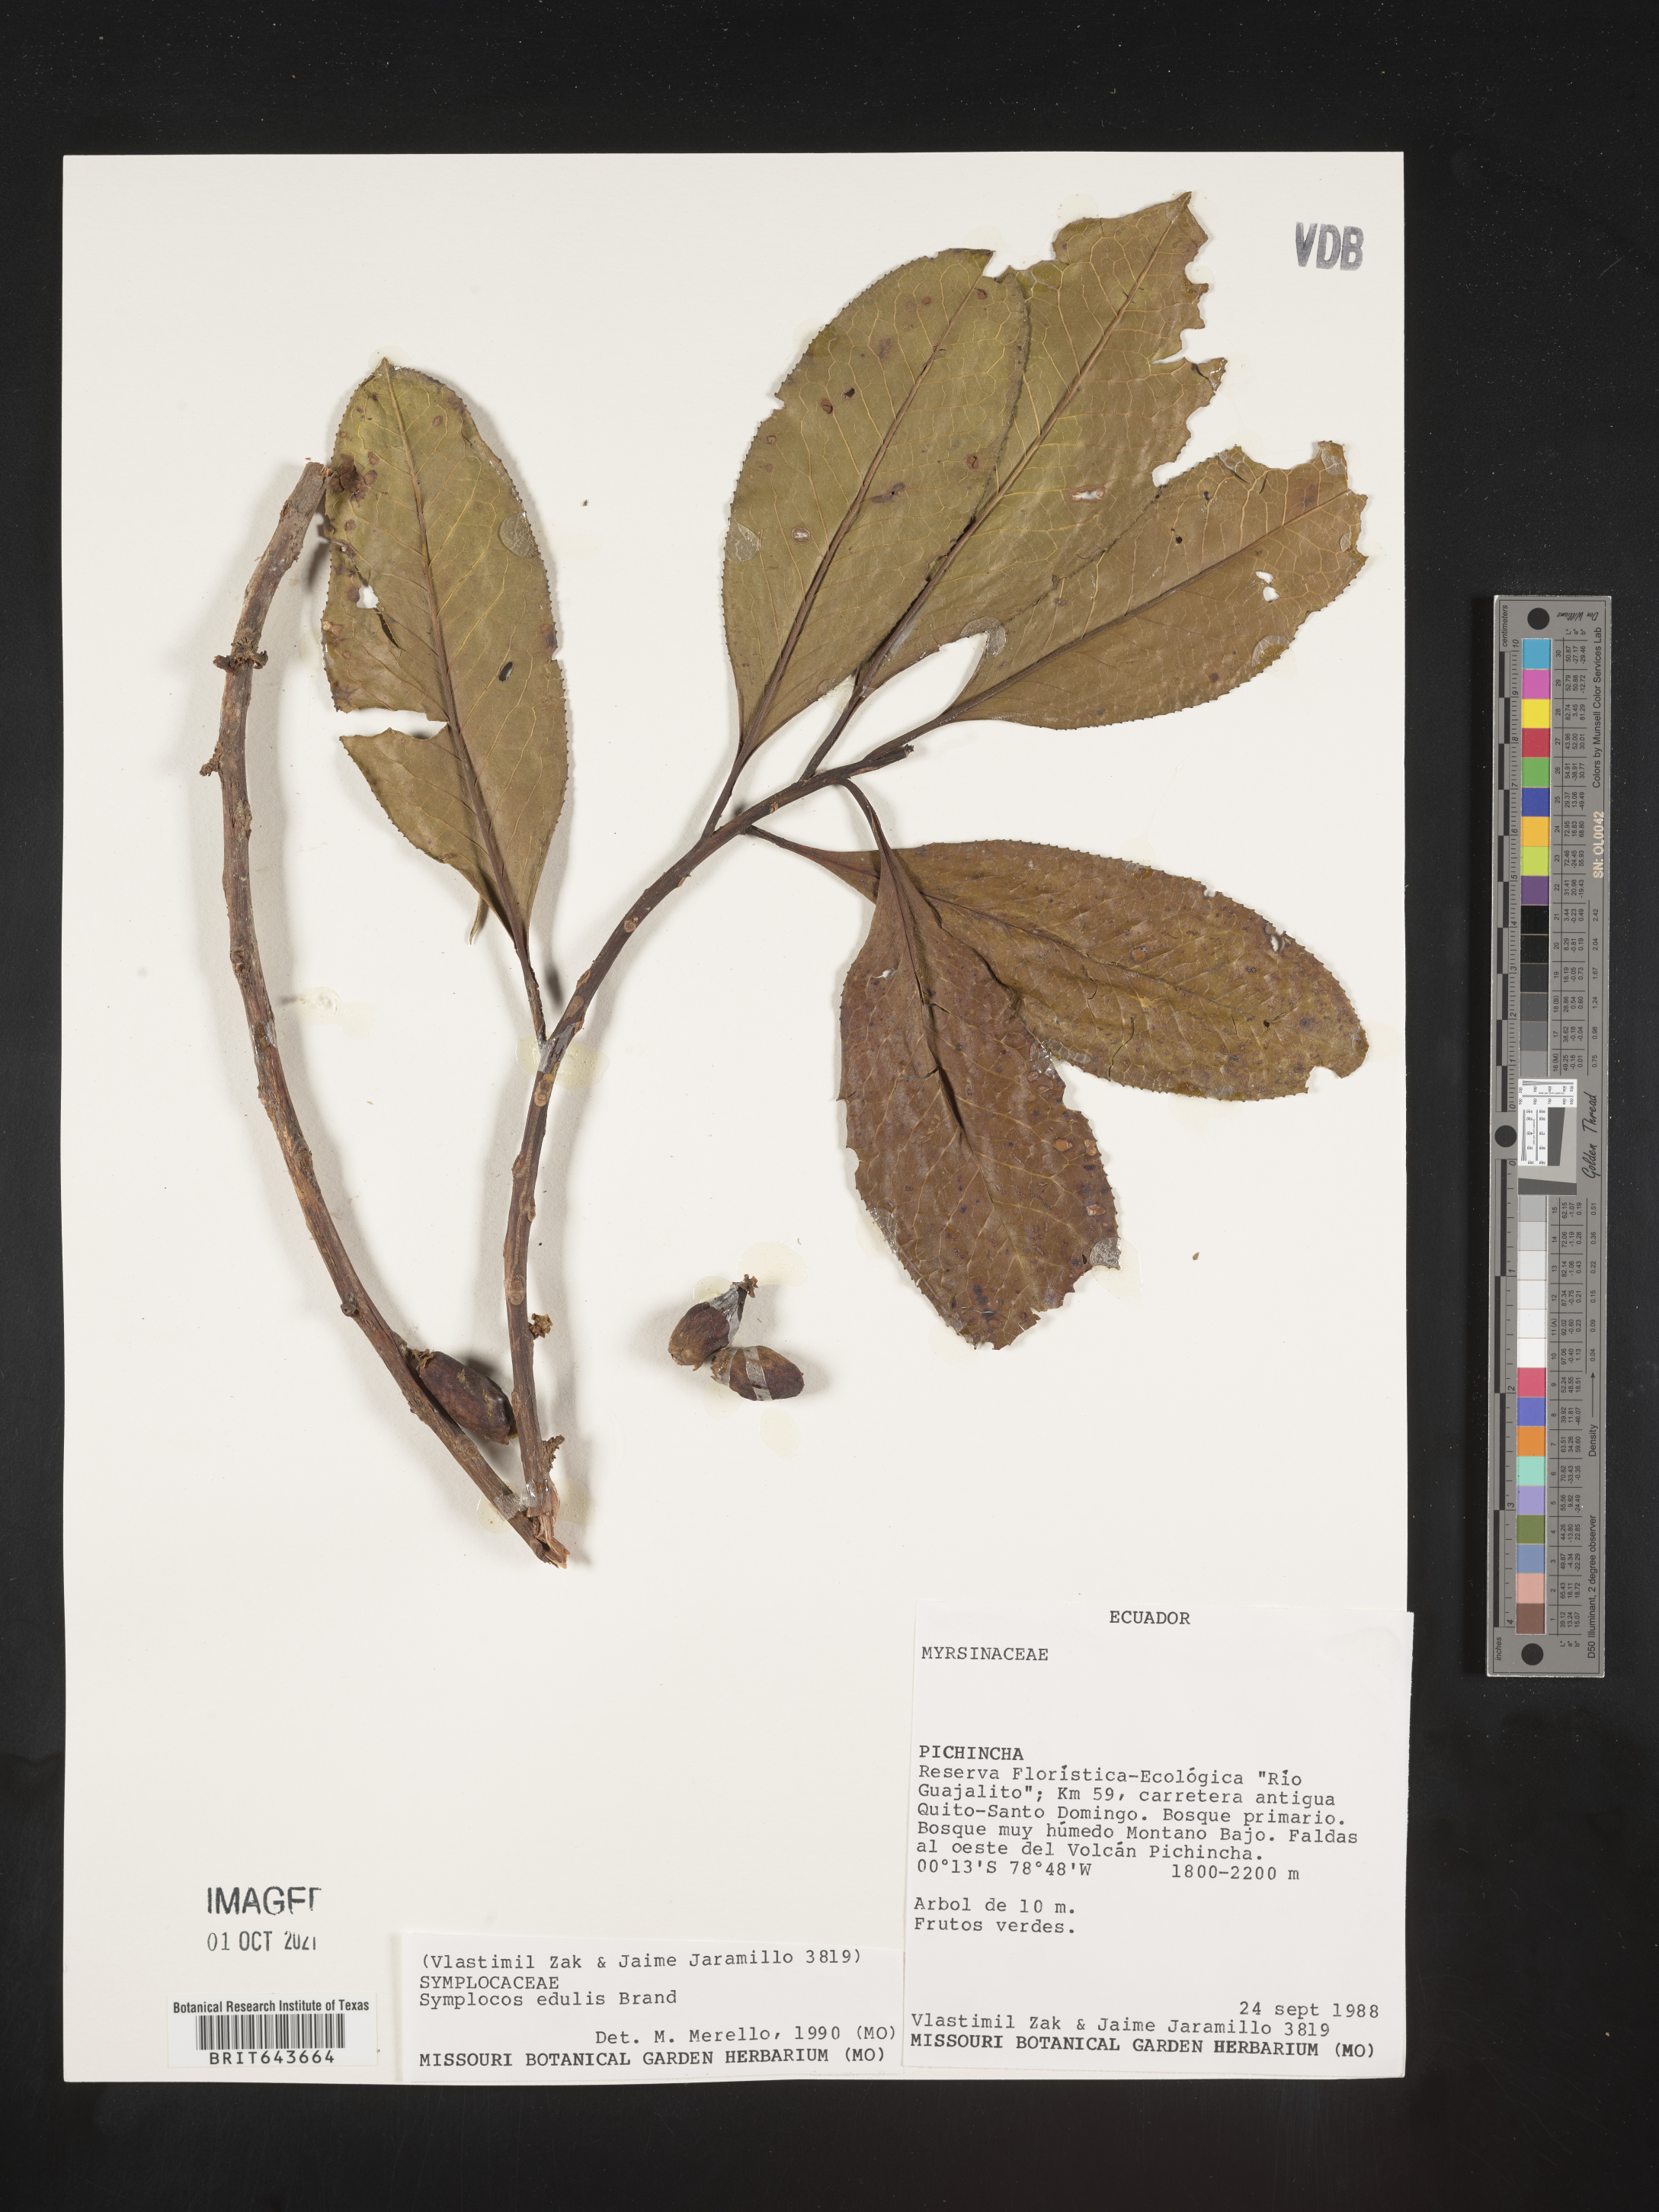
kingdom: Plantae
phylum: Tracheophyta
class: Magnoliopsida
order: Ericales
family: Symplocaceae
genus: Symplocos
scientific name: Symplocos
